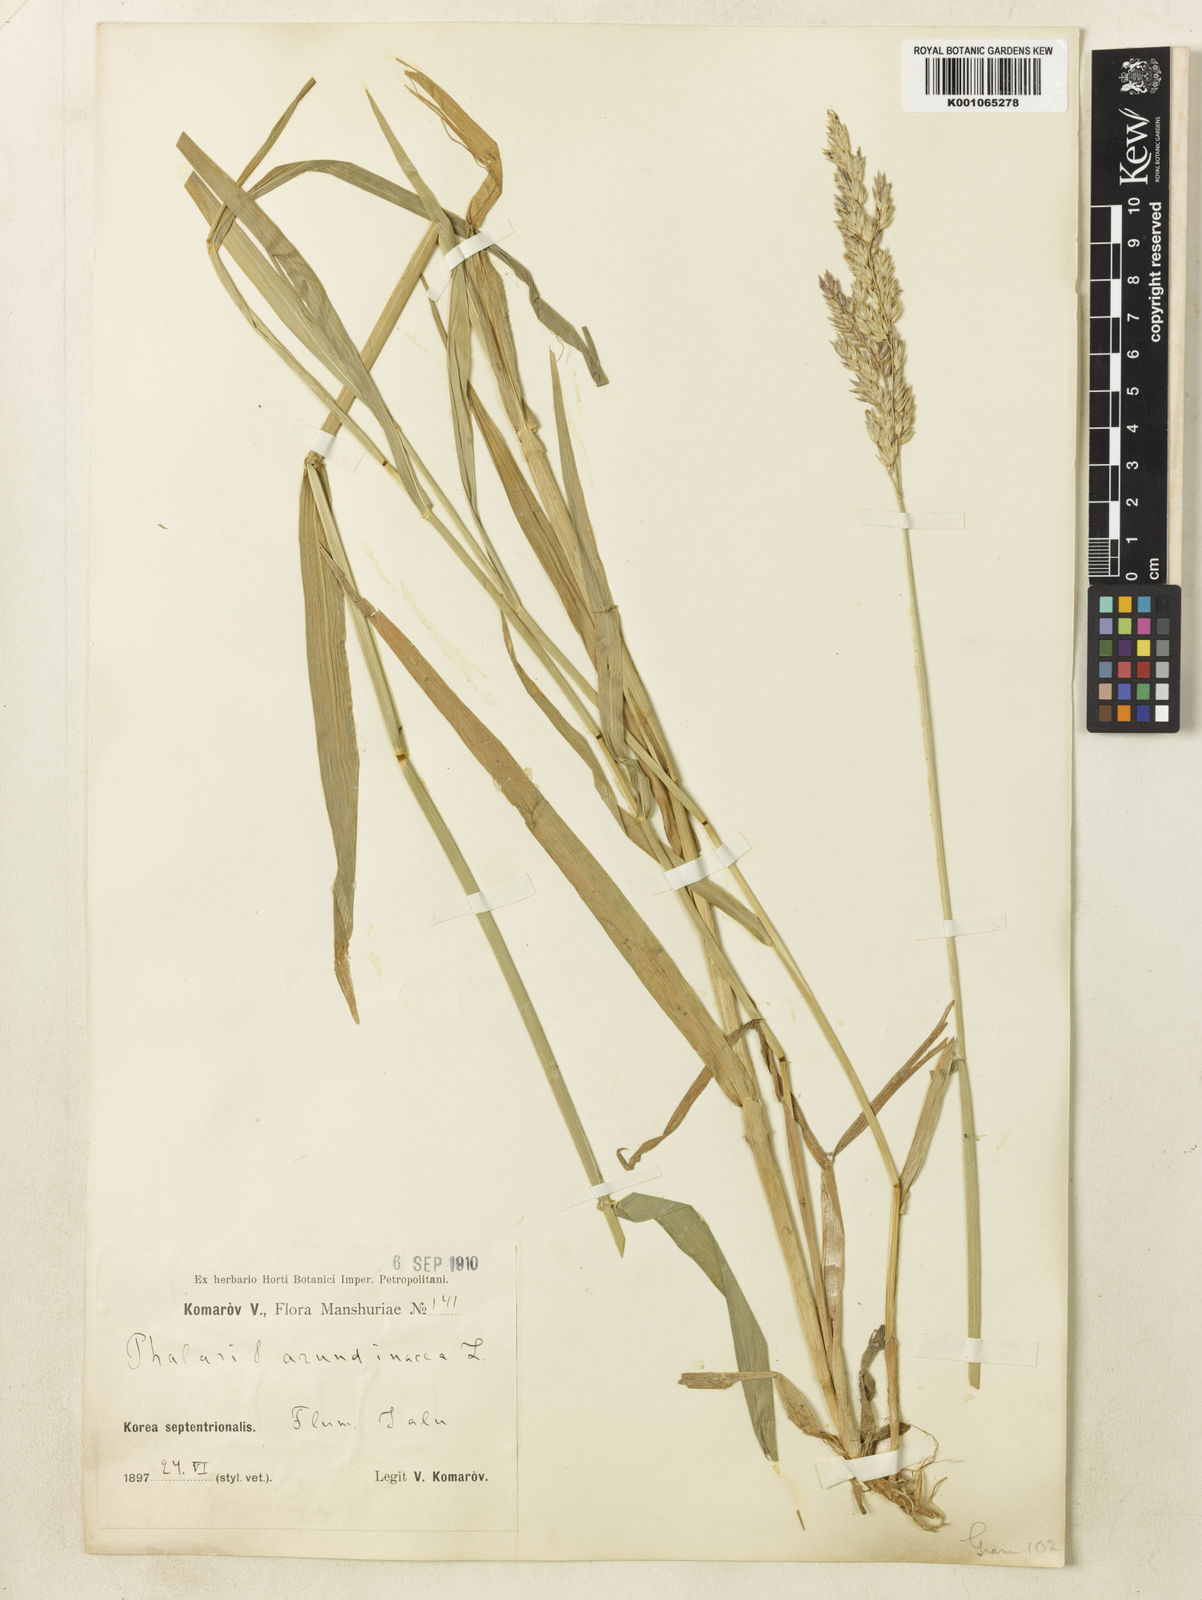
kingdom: Plantae
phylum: Tracheophyta
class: Liliopsida
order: Poales
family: Poaceae
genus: Phalaris
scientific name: Phalaris arundinacea
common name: Reed canary-grass
